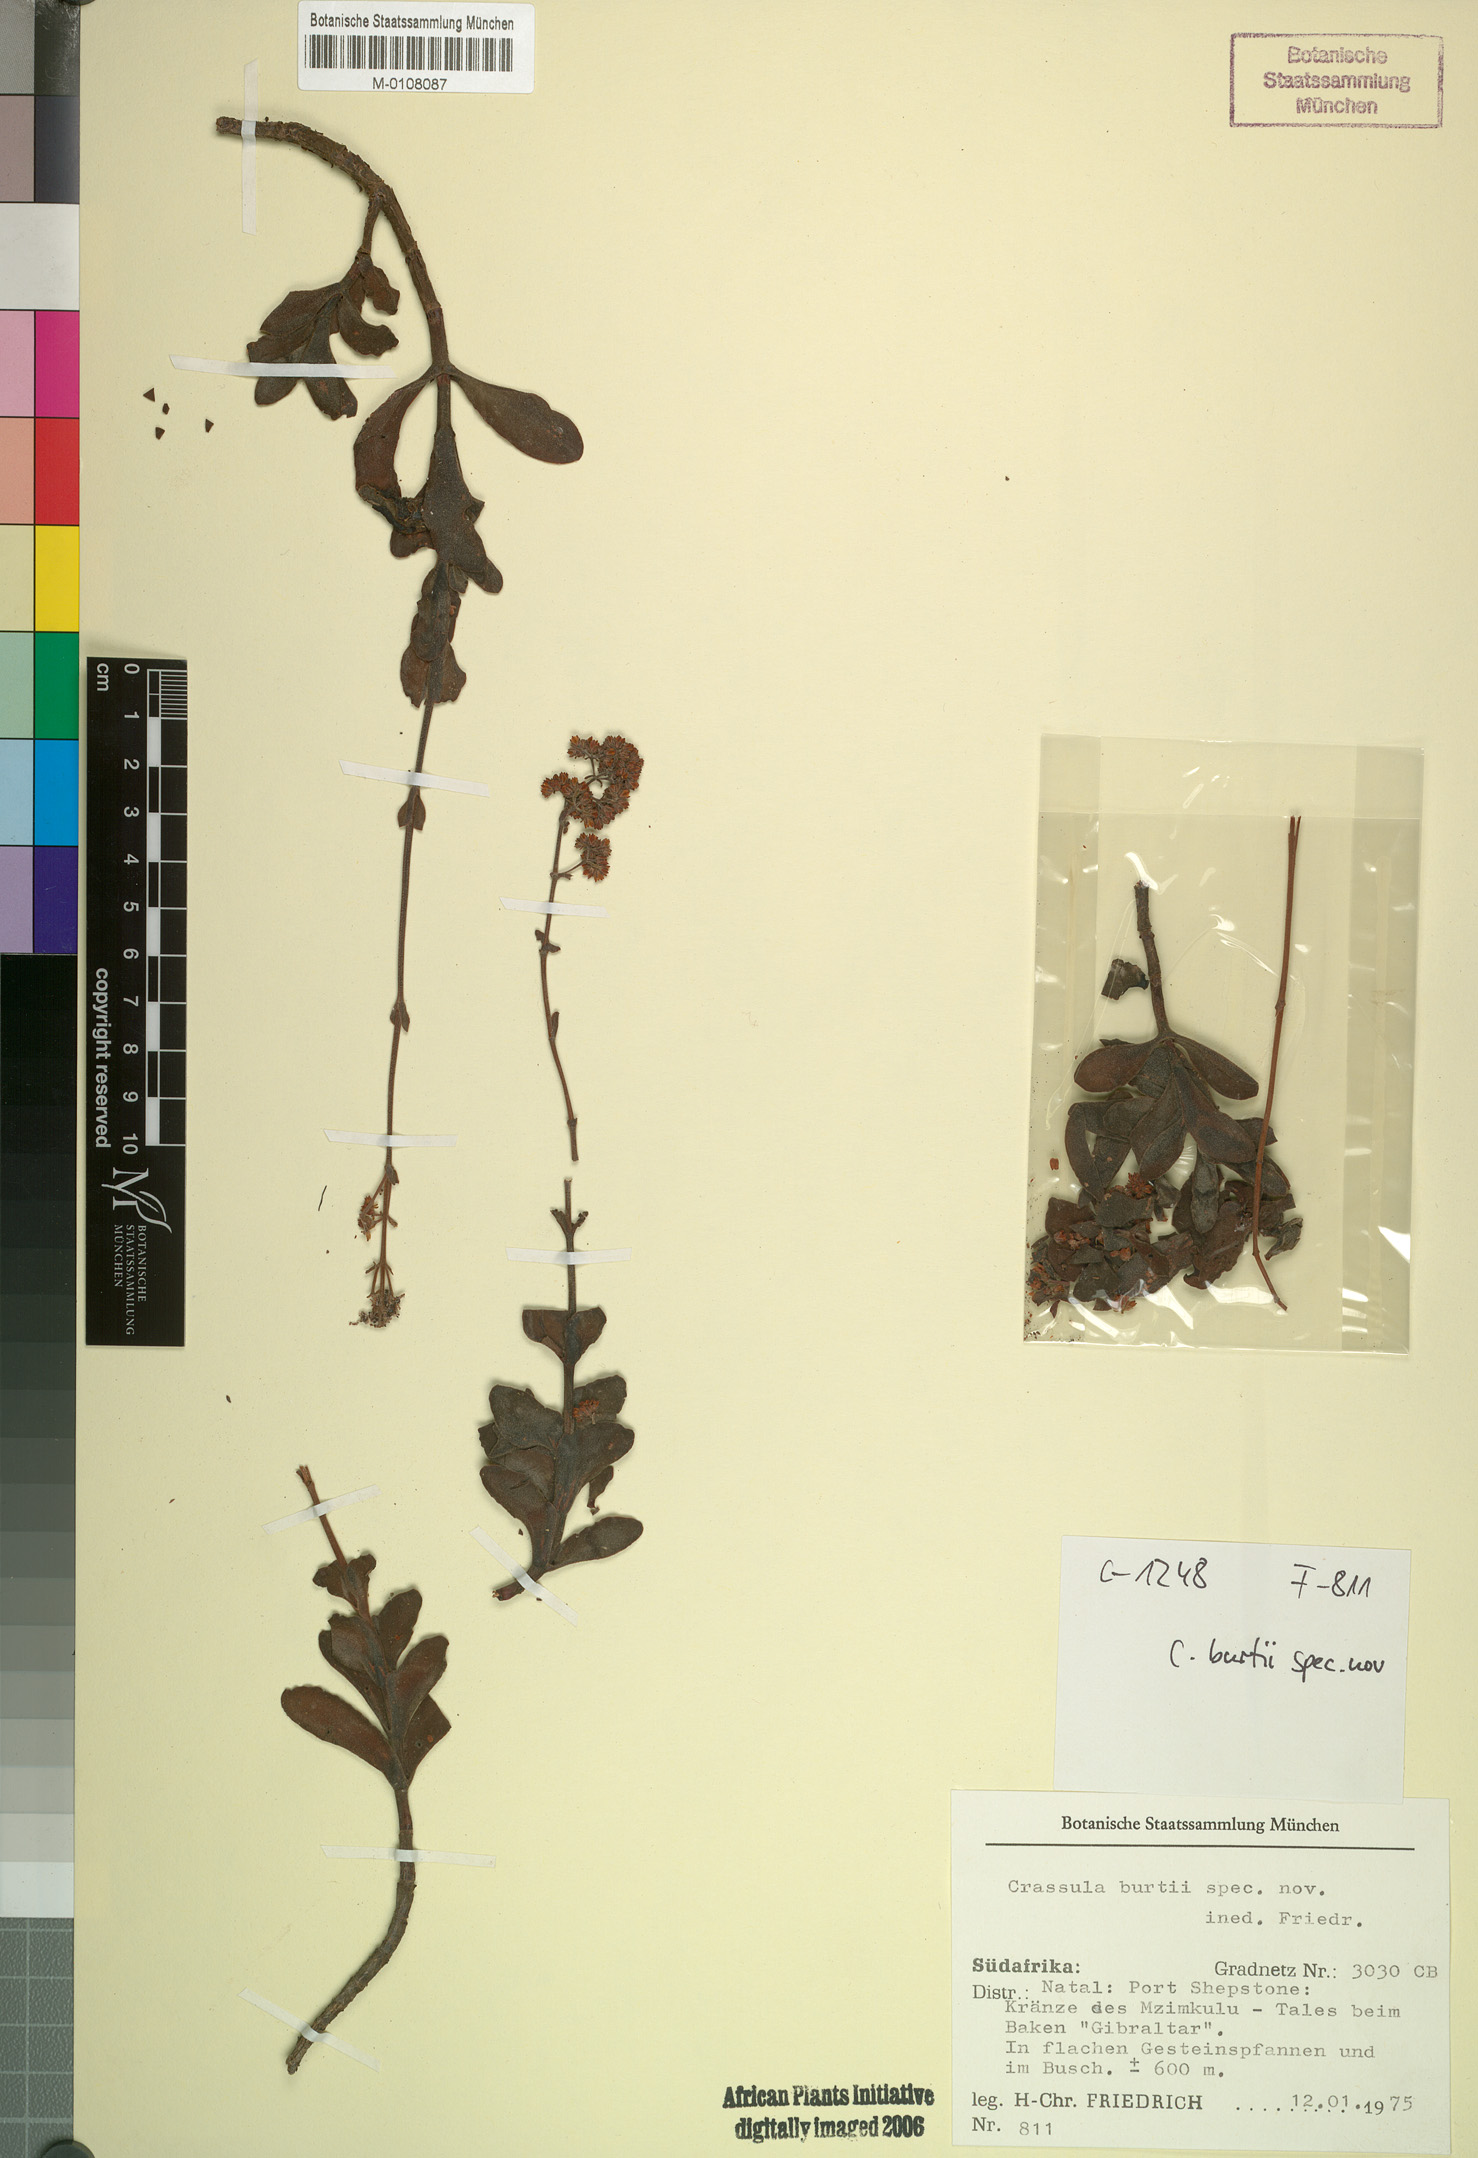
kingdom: Plantae
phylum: Tracheophyta
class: Magnoliopsida
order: Saxifragales
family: Crassulaceae
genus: Crassula
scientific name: Crassula
